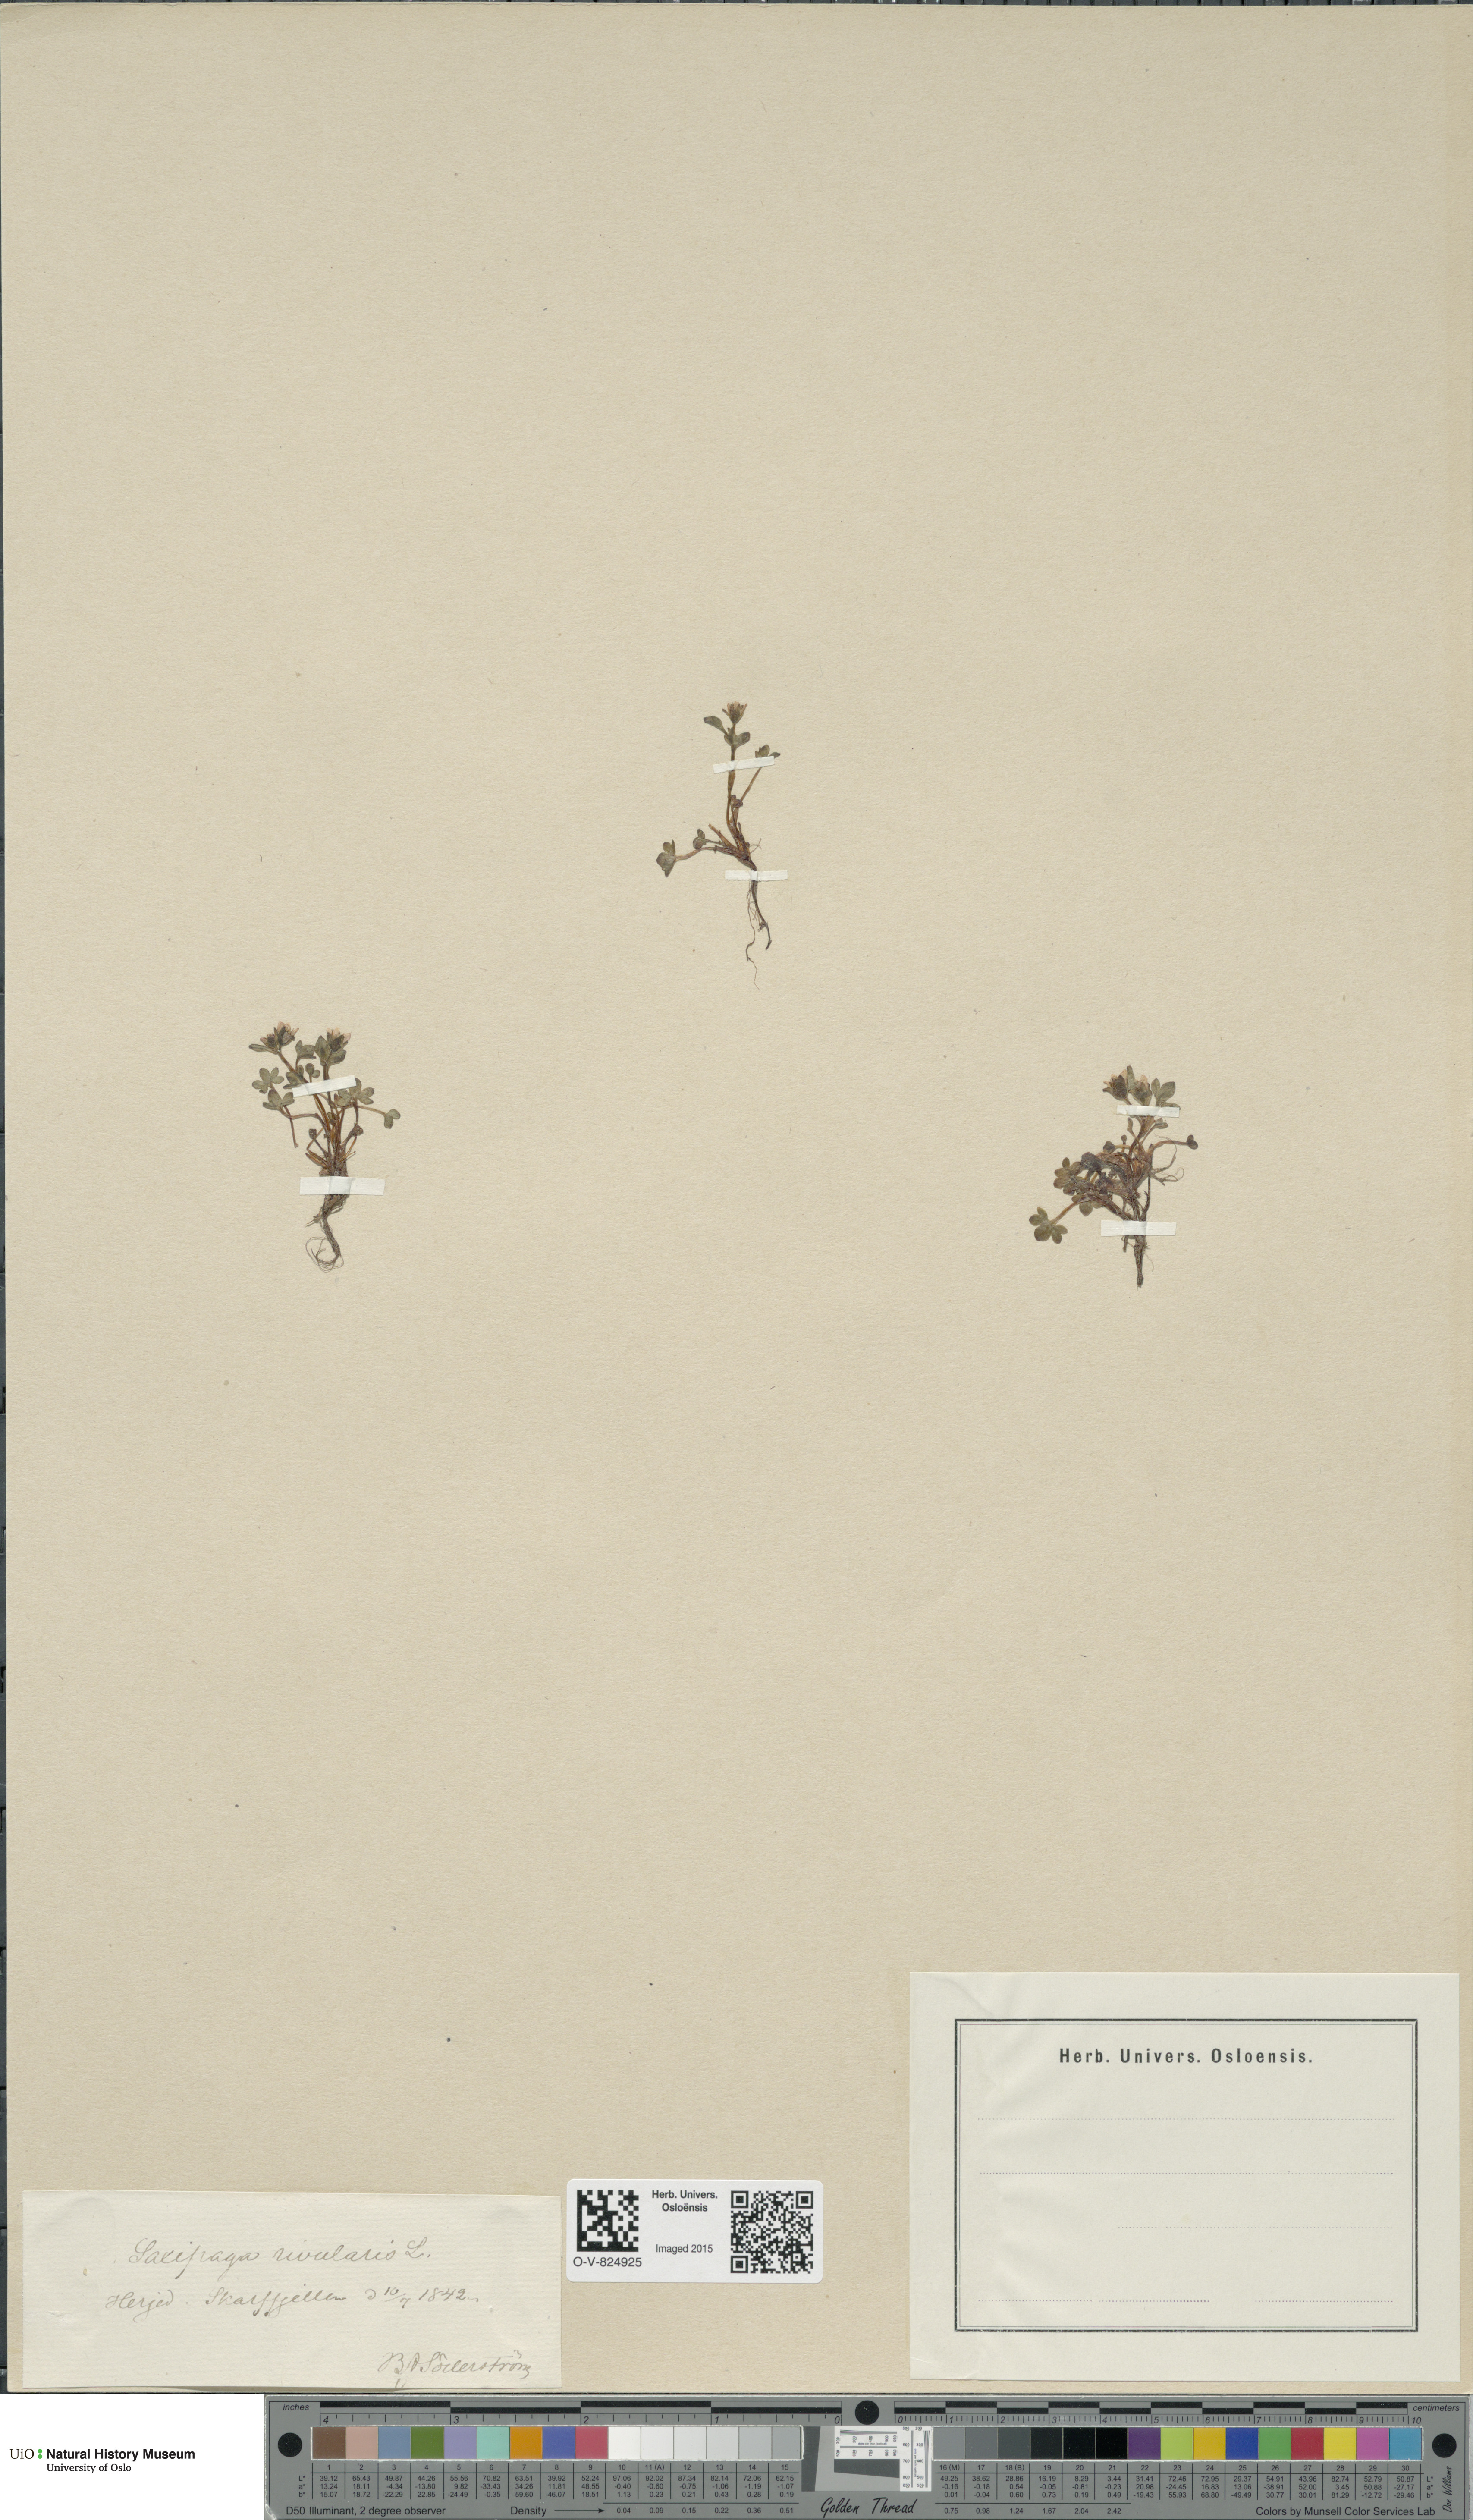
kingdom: Plantae
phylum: Tracheophyta
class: Magnoliopsida
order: Saxifragales
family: Saxifragaceae
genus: Saxifraga
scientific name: Saxifraga rivularis
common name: Highland saxifrage
